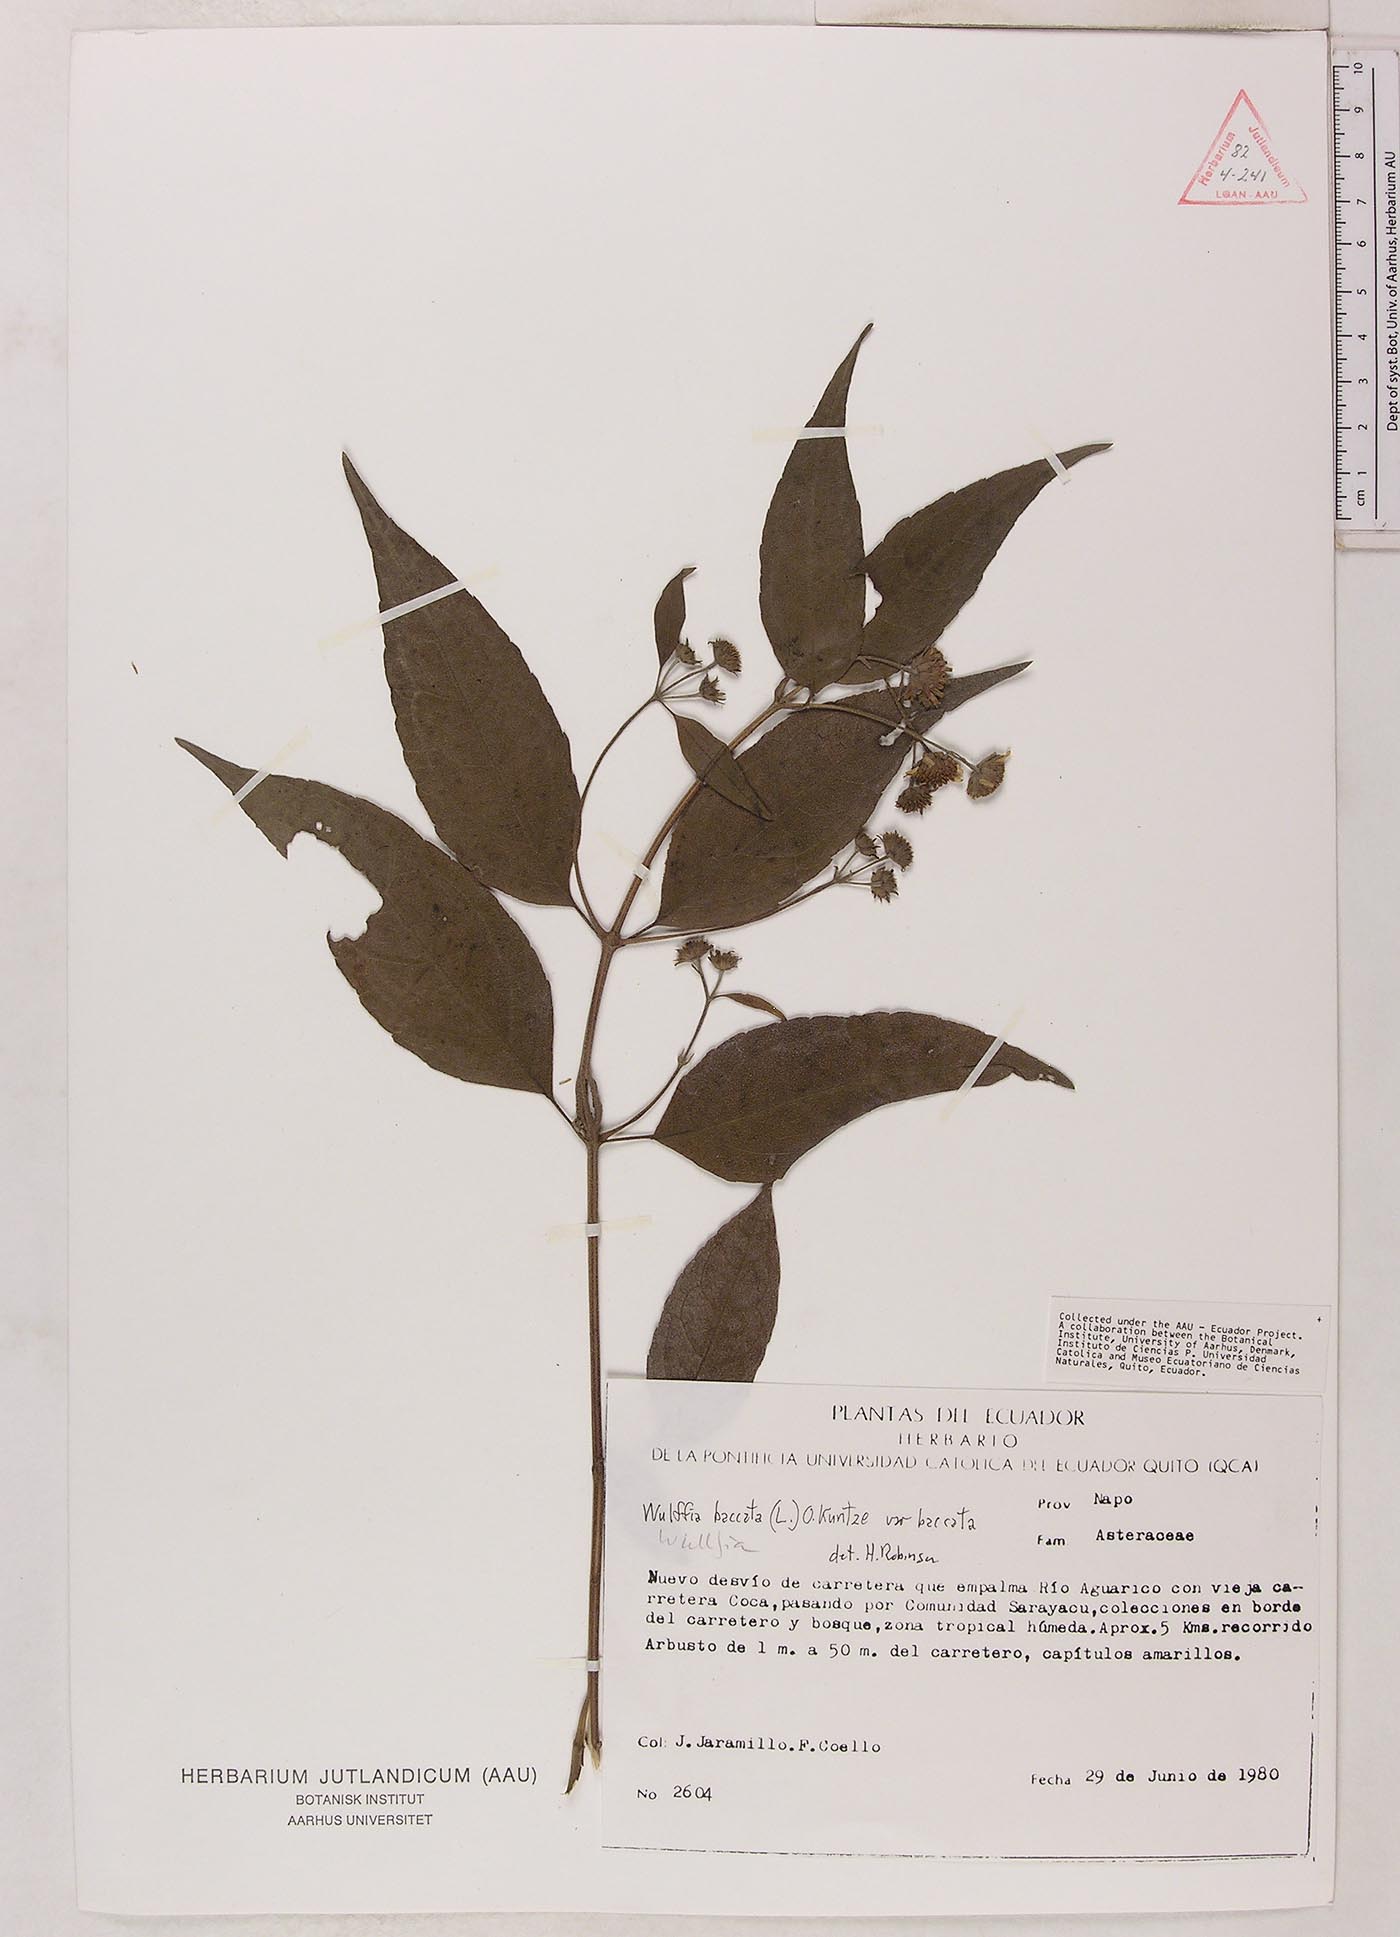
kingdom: Plantae
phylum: Tracheophyta
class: Magnoliopsida
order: Asterales
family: Asteraceae
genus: Tilesia
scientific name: Tilesia baccata
